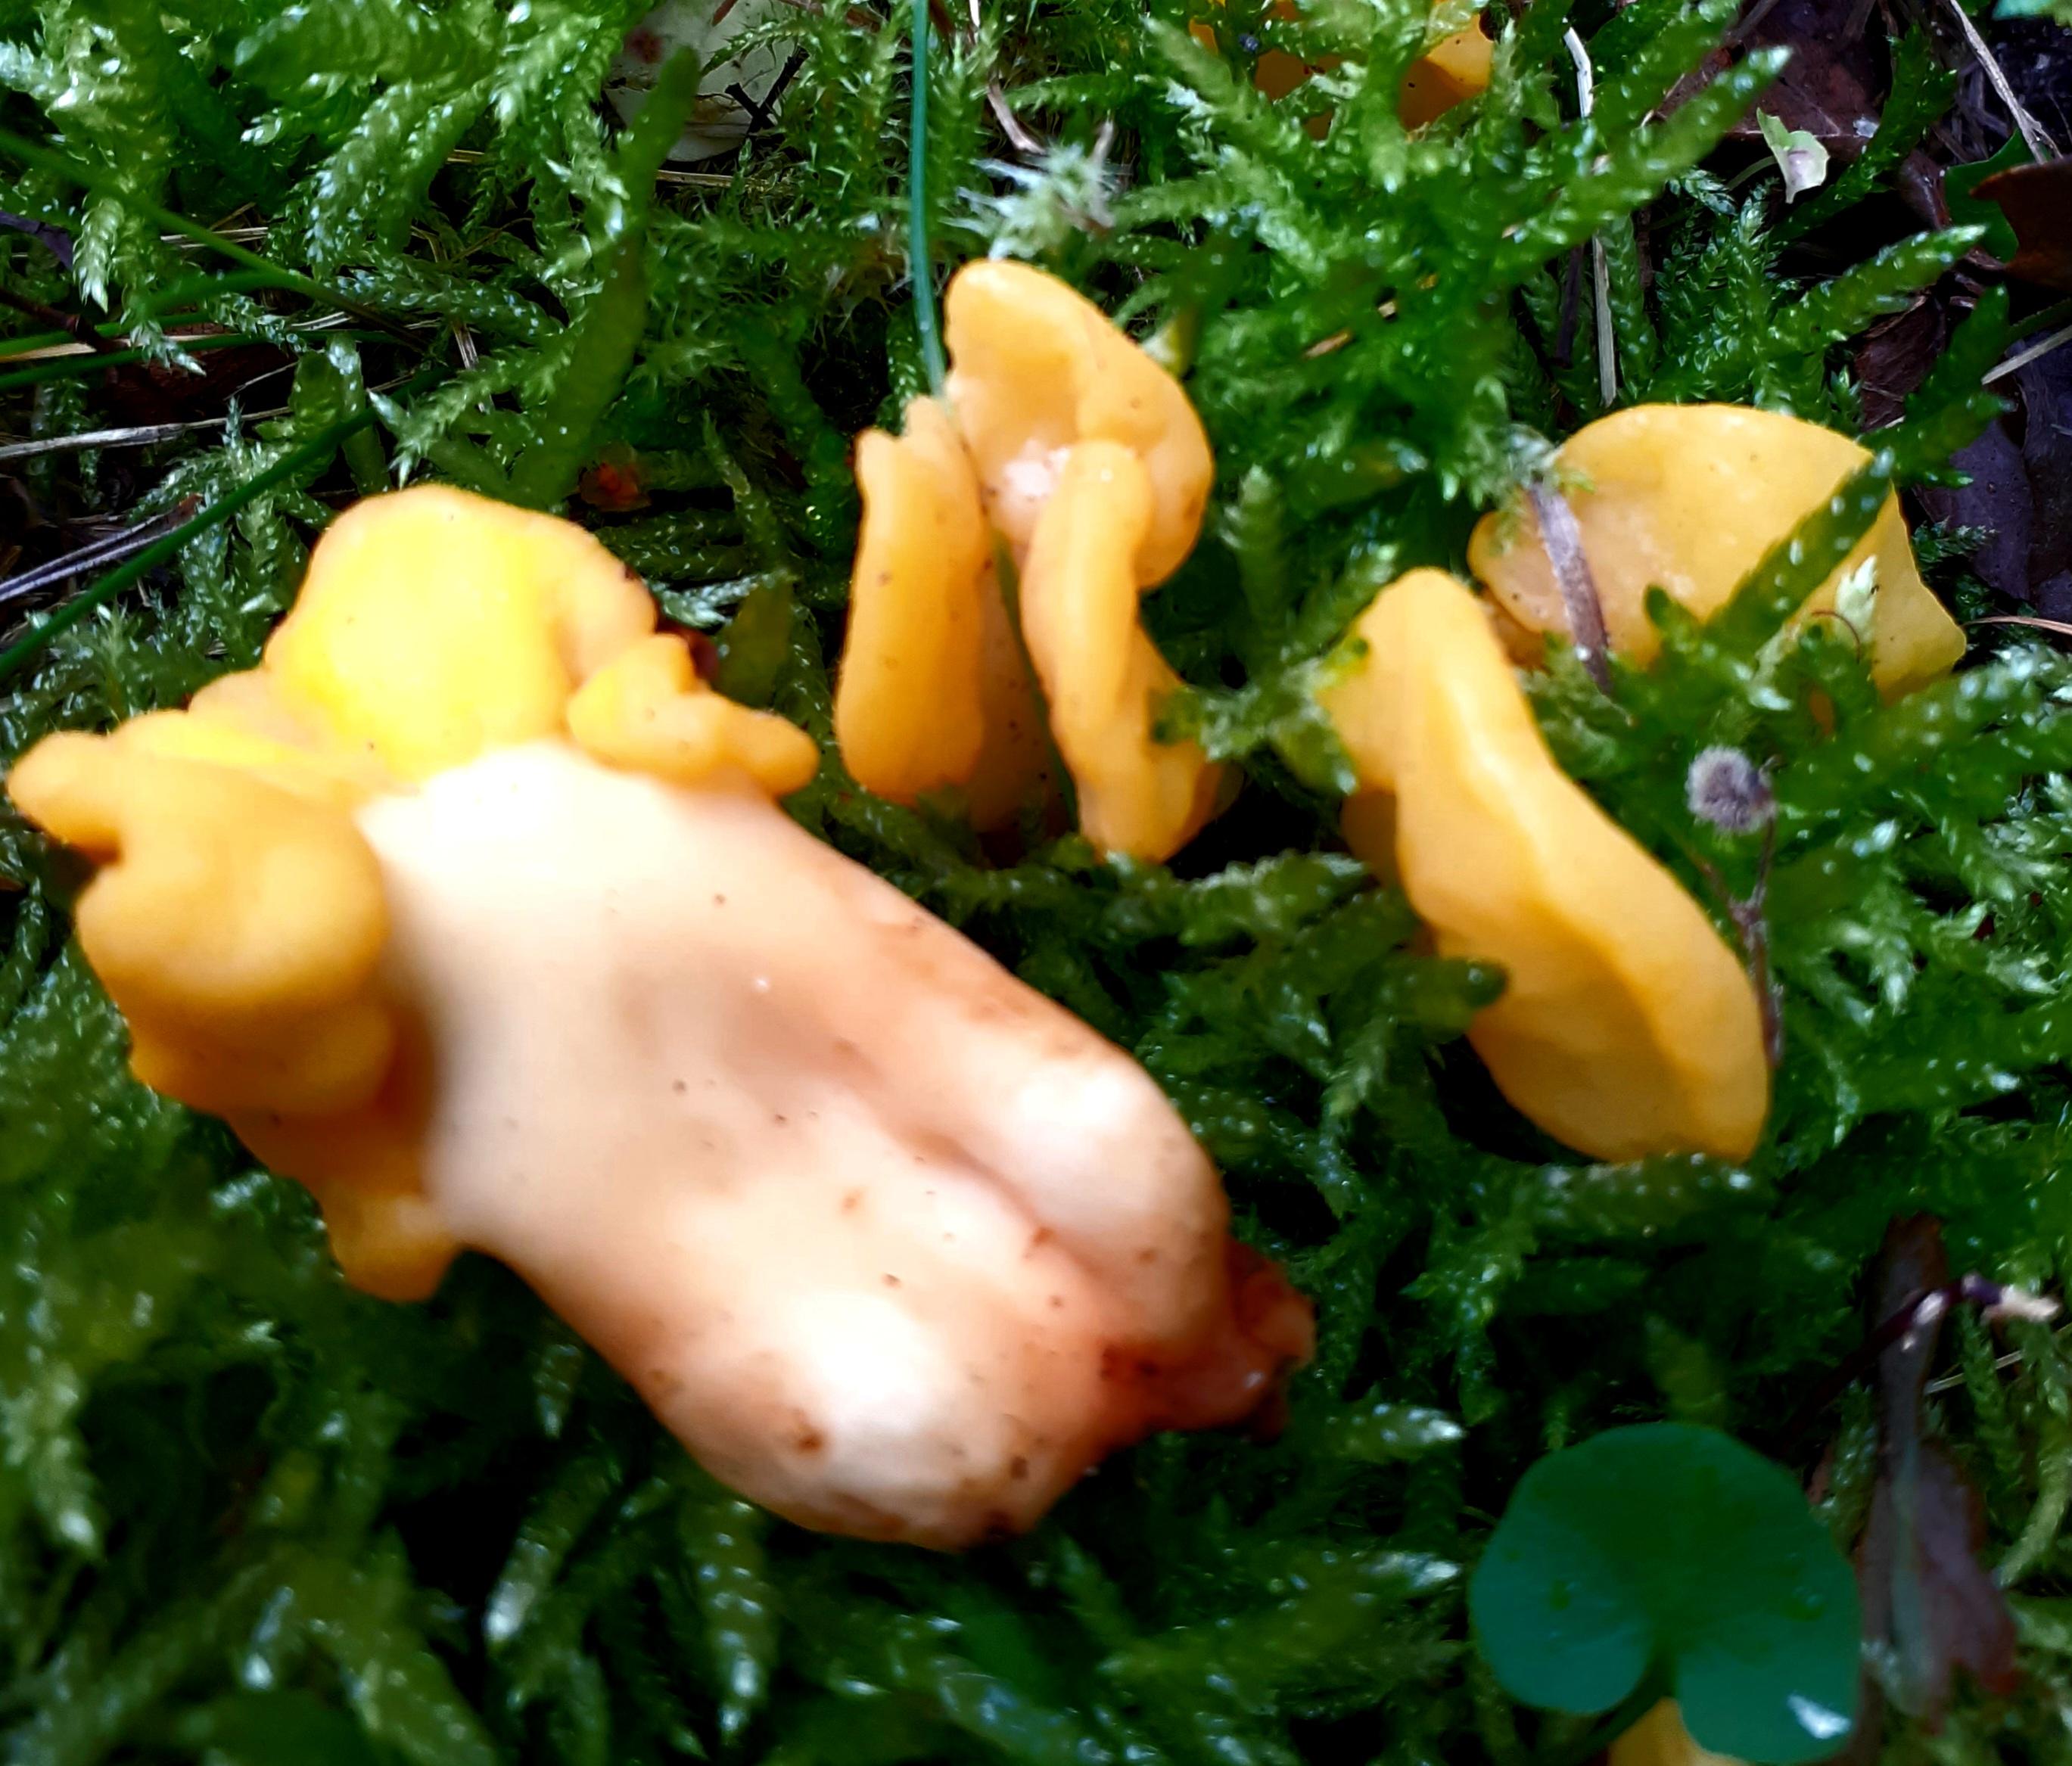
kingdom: Fungi
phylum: Ascomycota
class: Leotiomycetes
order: Rhytismatales
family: Cudoniaceae
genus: Spathularia
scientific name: Spathularia flavida
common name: gul spatelsvamp
